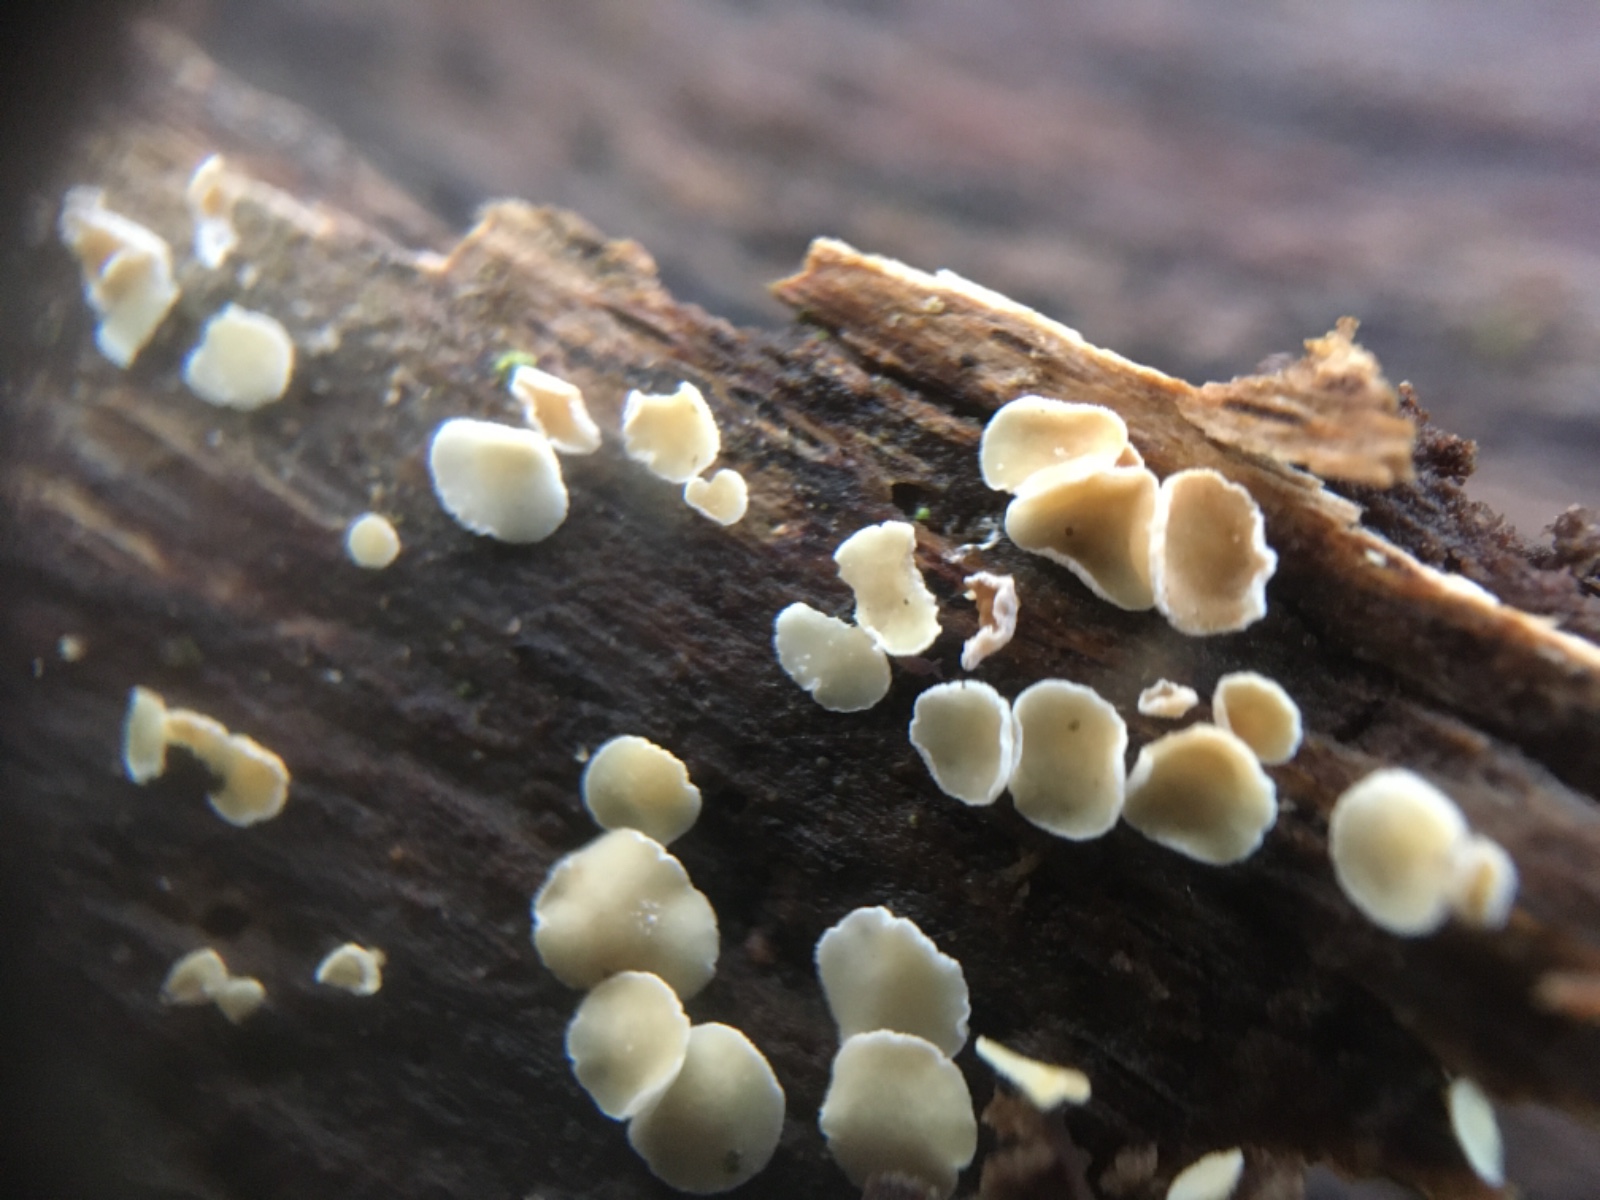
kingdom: Fungi
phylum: Ascomycota
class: Leotiomycetes
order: Helotiales
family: Lachnaceae
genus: Lachnum
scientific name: Lachnum
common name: frynseskive
